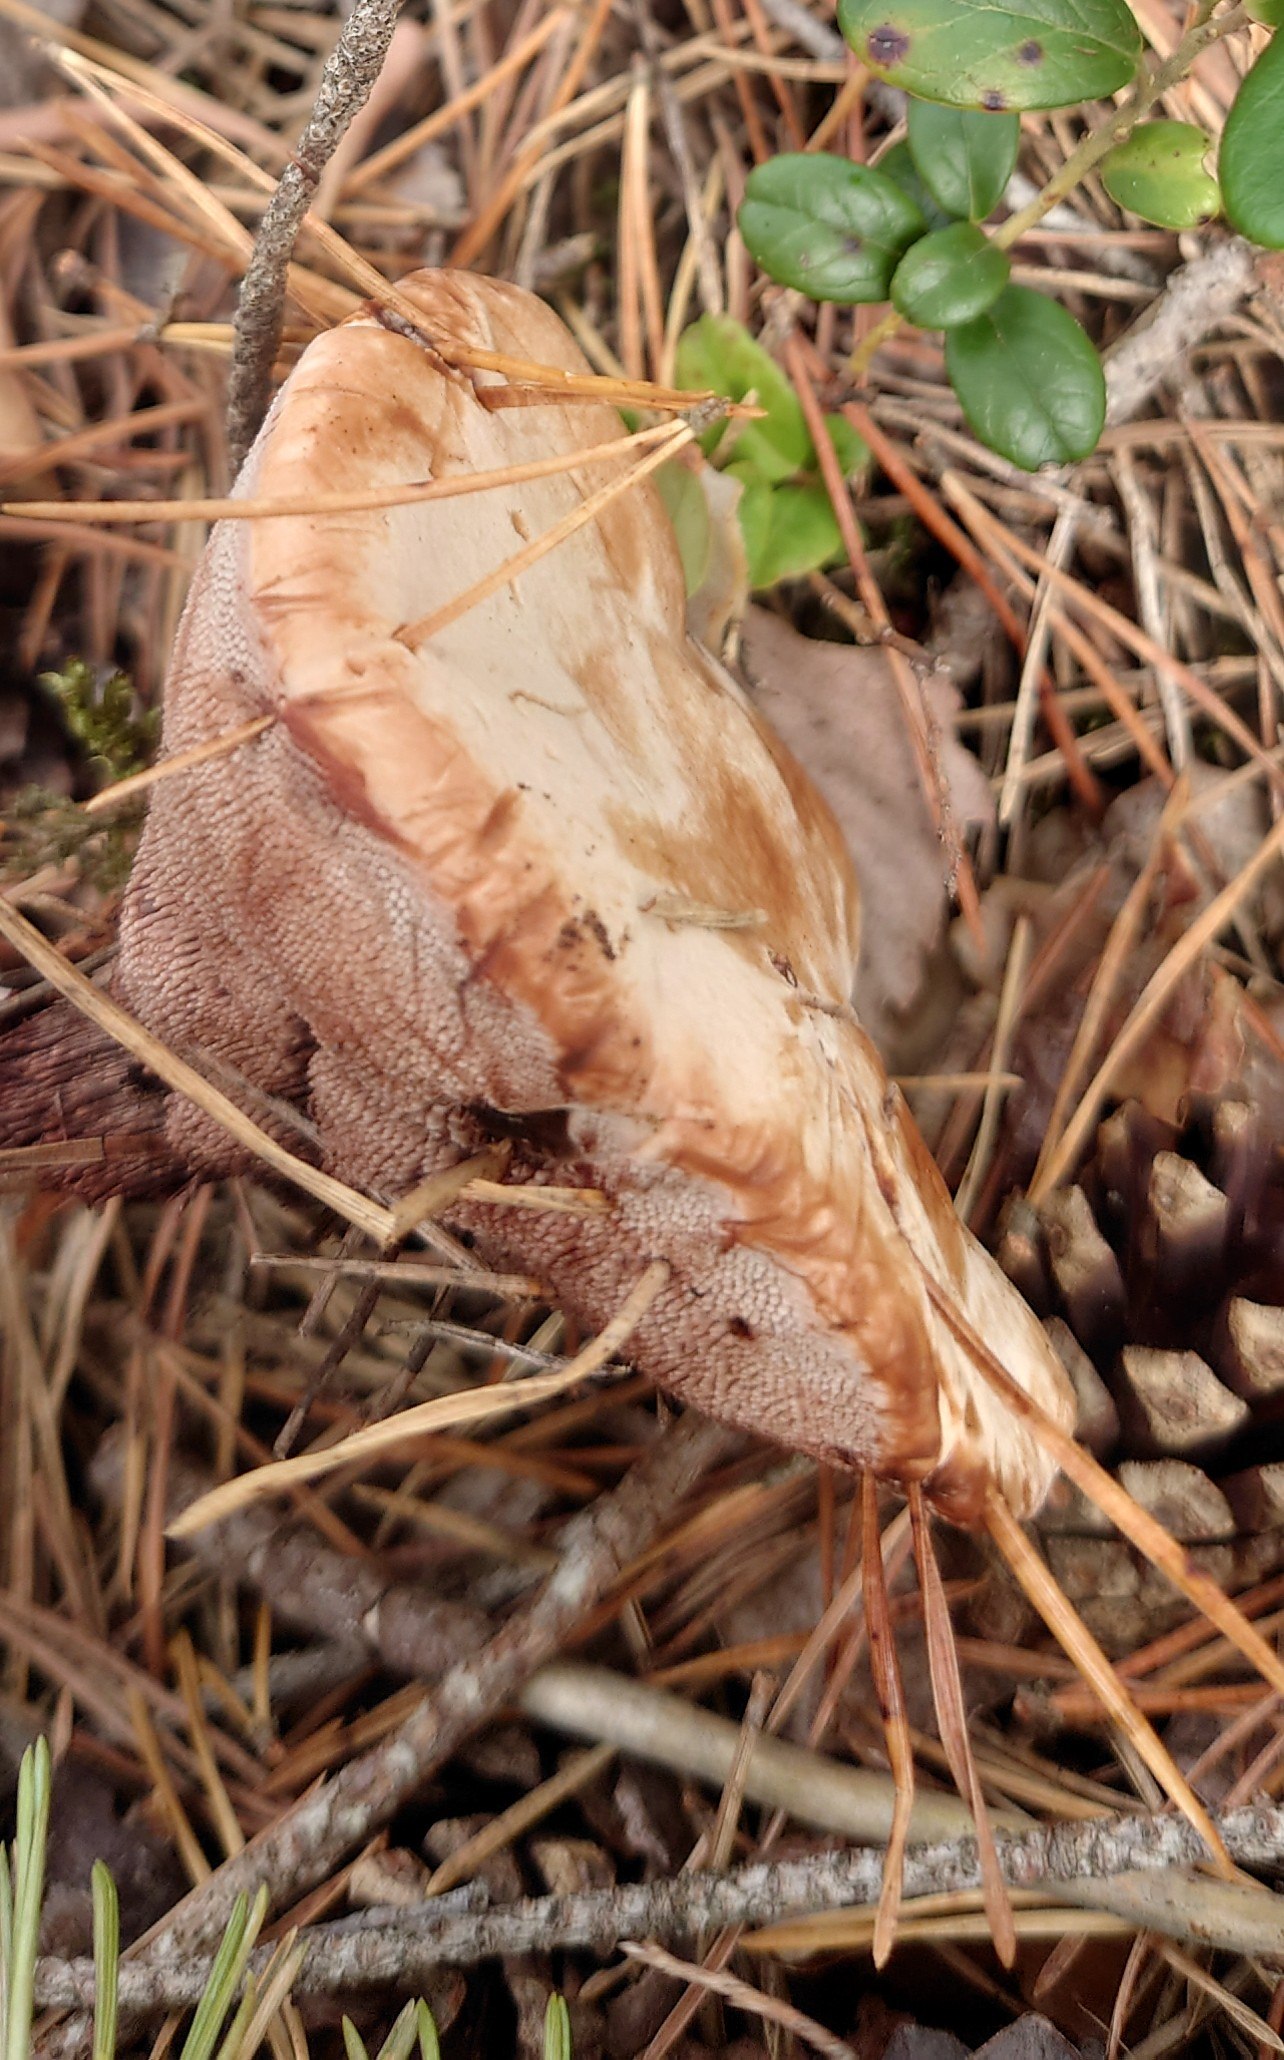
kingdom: Fungi
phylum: Basidiomycota
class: Agaricomycetes
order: Thelephorales
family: Bankeraceae
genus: Hydnellum
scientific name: Hydnellum
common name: korkpigsvamp
